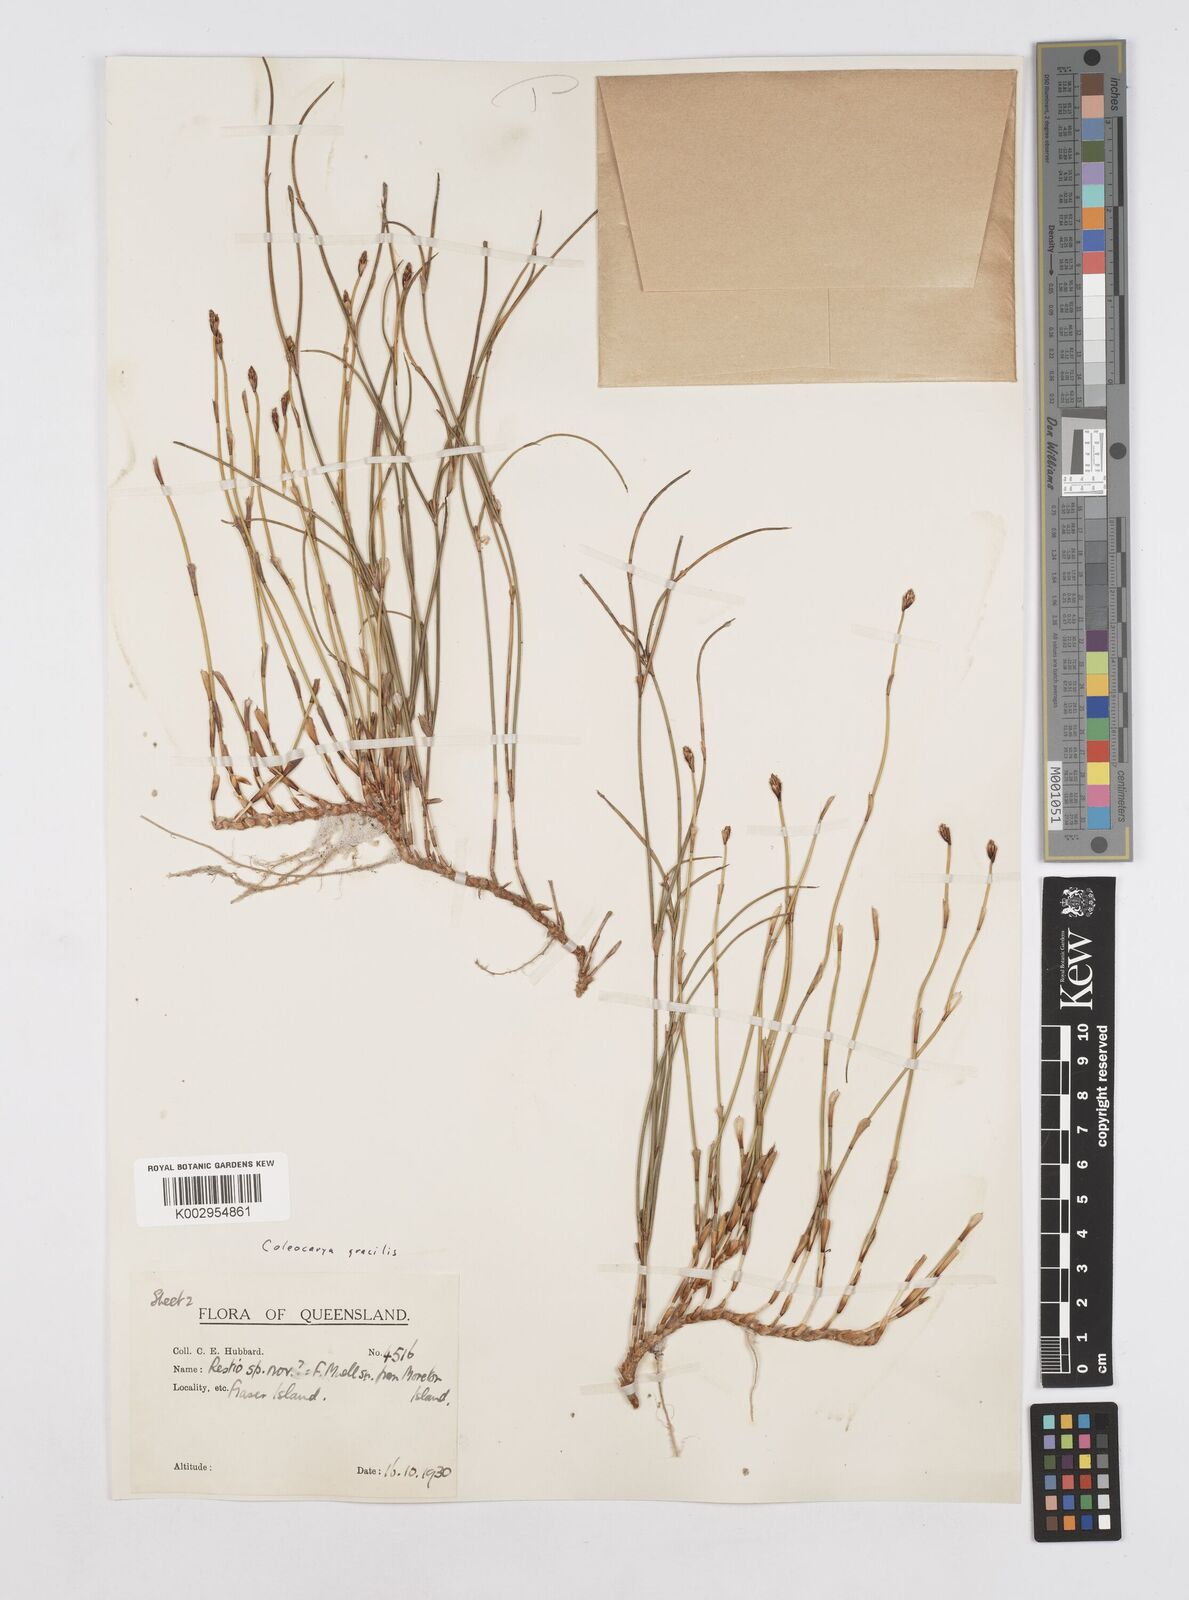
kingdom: Plantae
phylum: Tracheophyta
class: Liliopsida
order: Poales
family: Restionaceae
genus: Coleocarya
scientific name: Coleocarya gracilis
